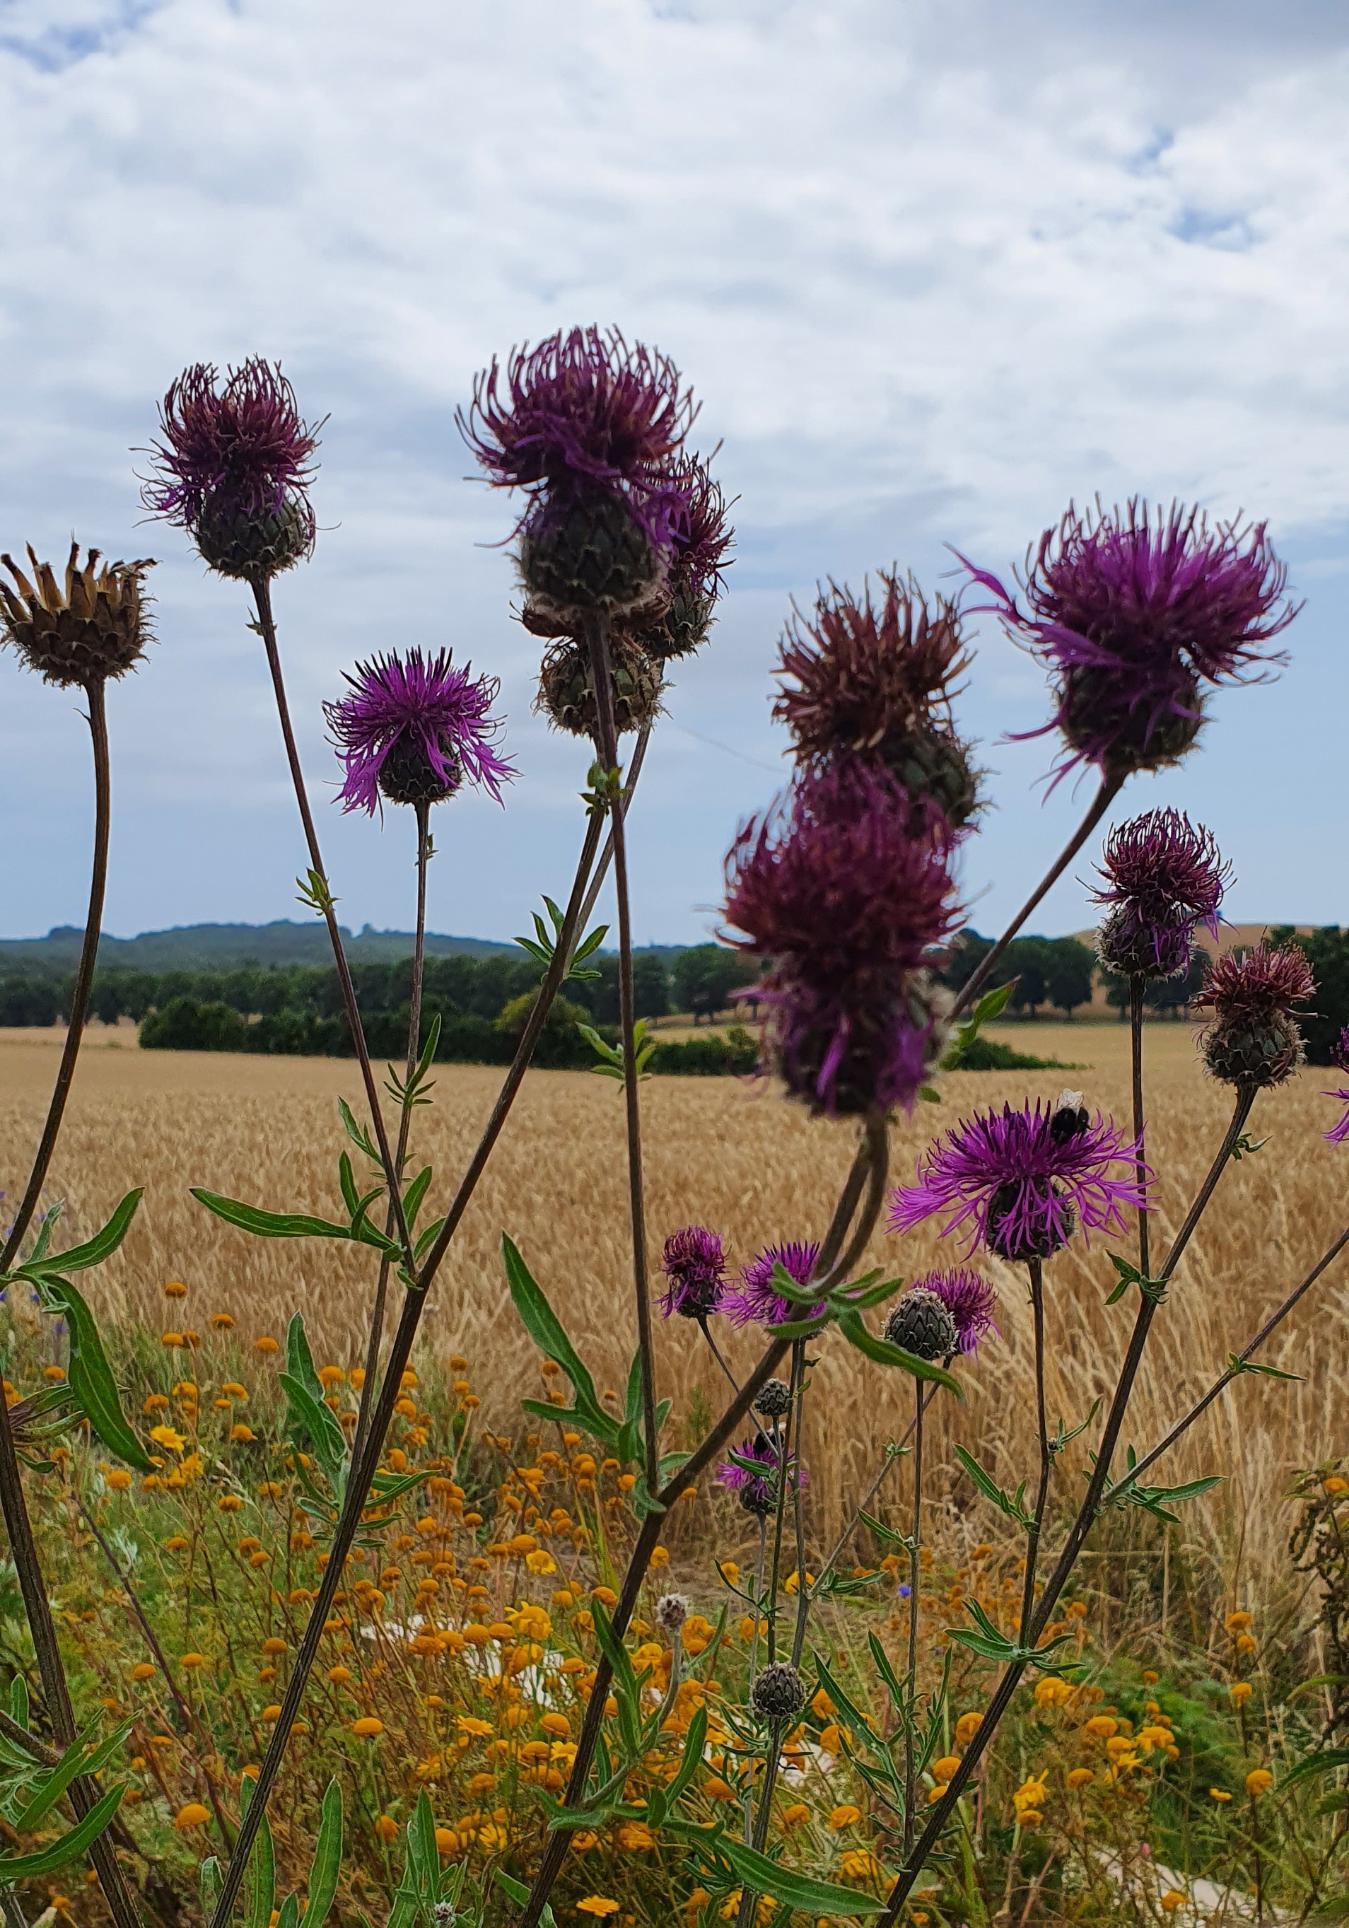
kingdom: Plantae
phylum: Tracheophyta
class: Magnoliopsida
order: Asterales
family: Asteraceae
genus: Centaurea
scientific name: Centaurea scabiosa
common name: Stor knopurt
